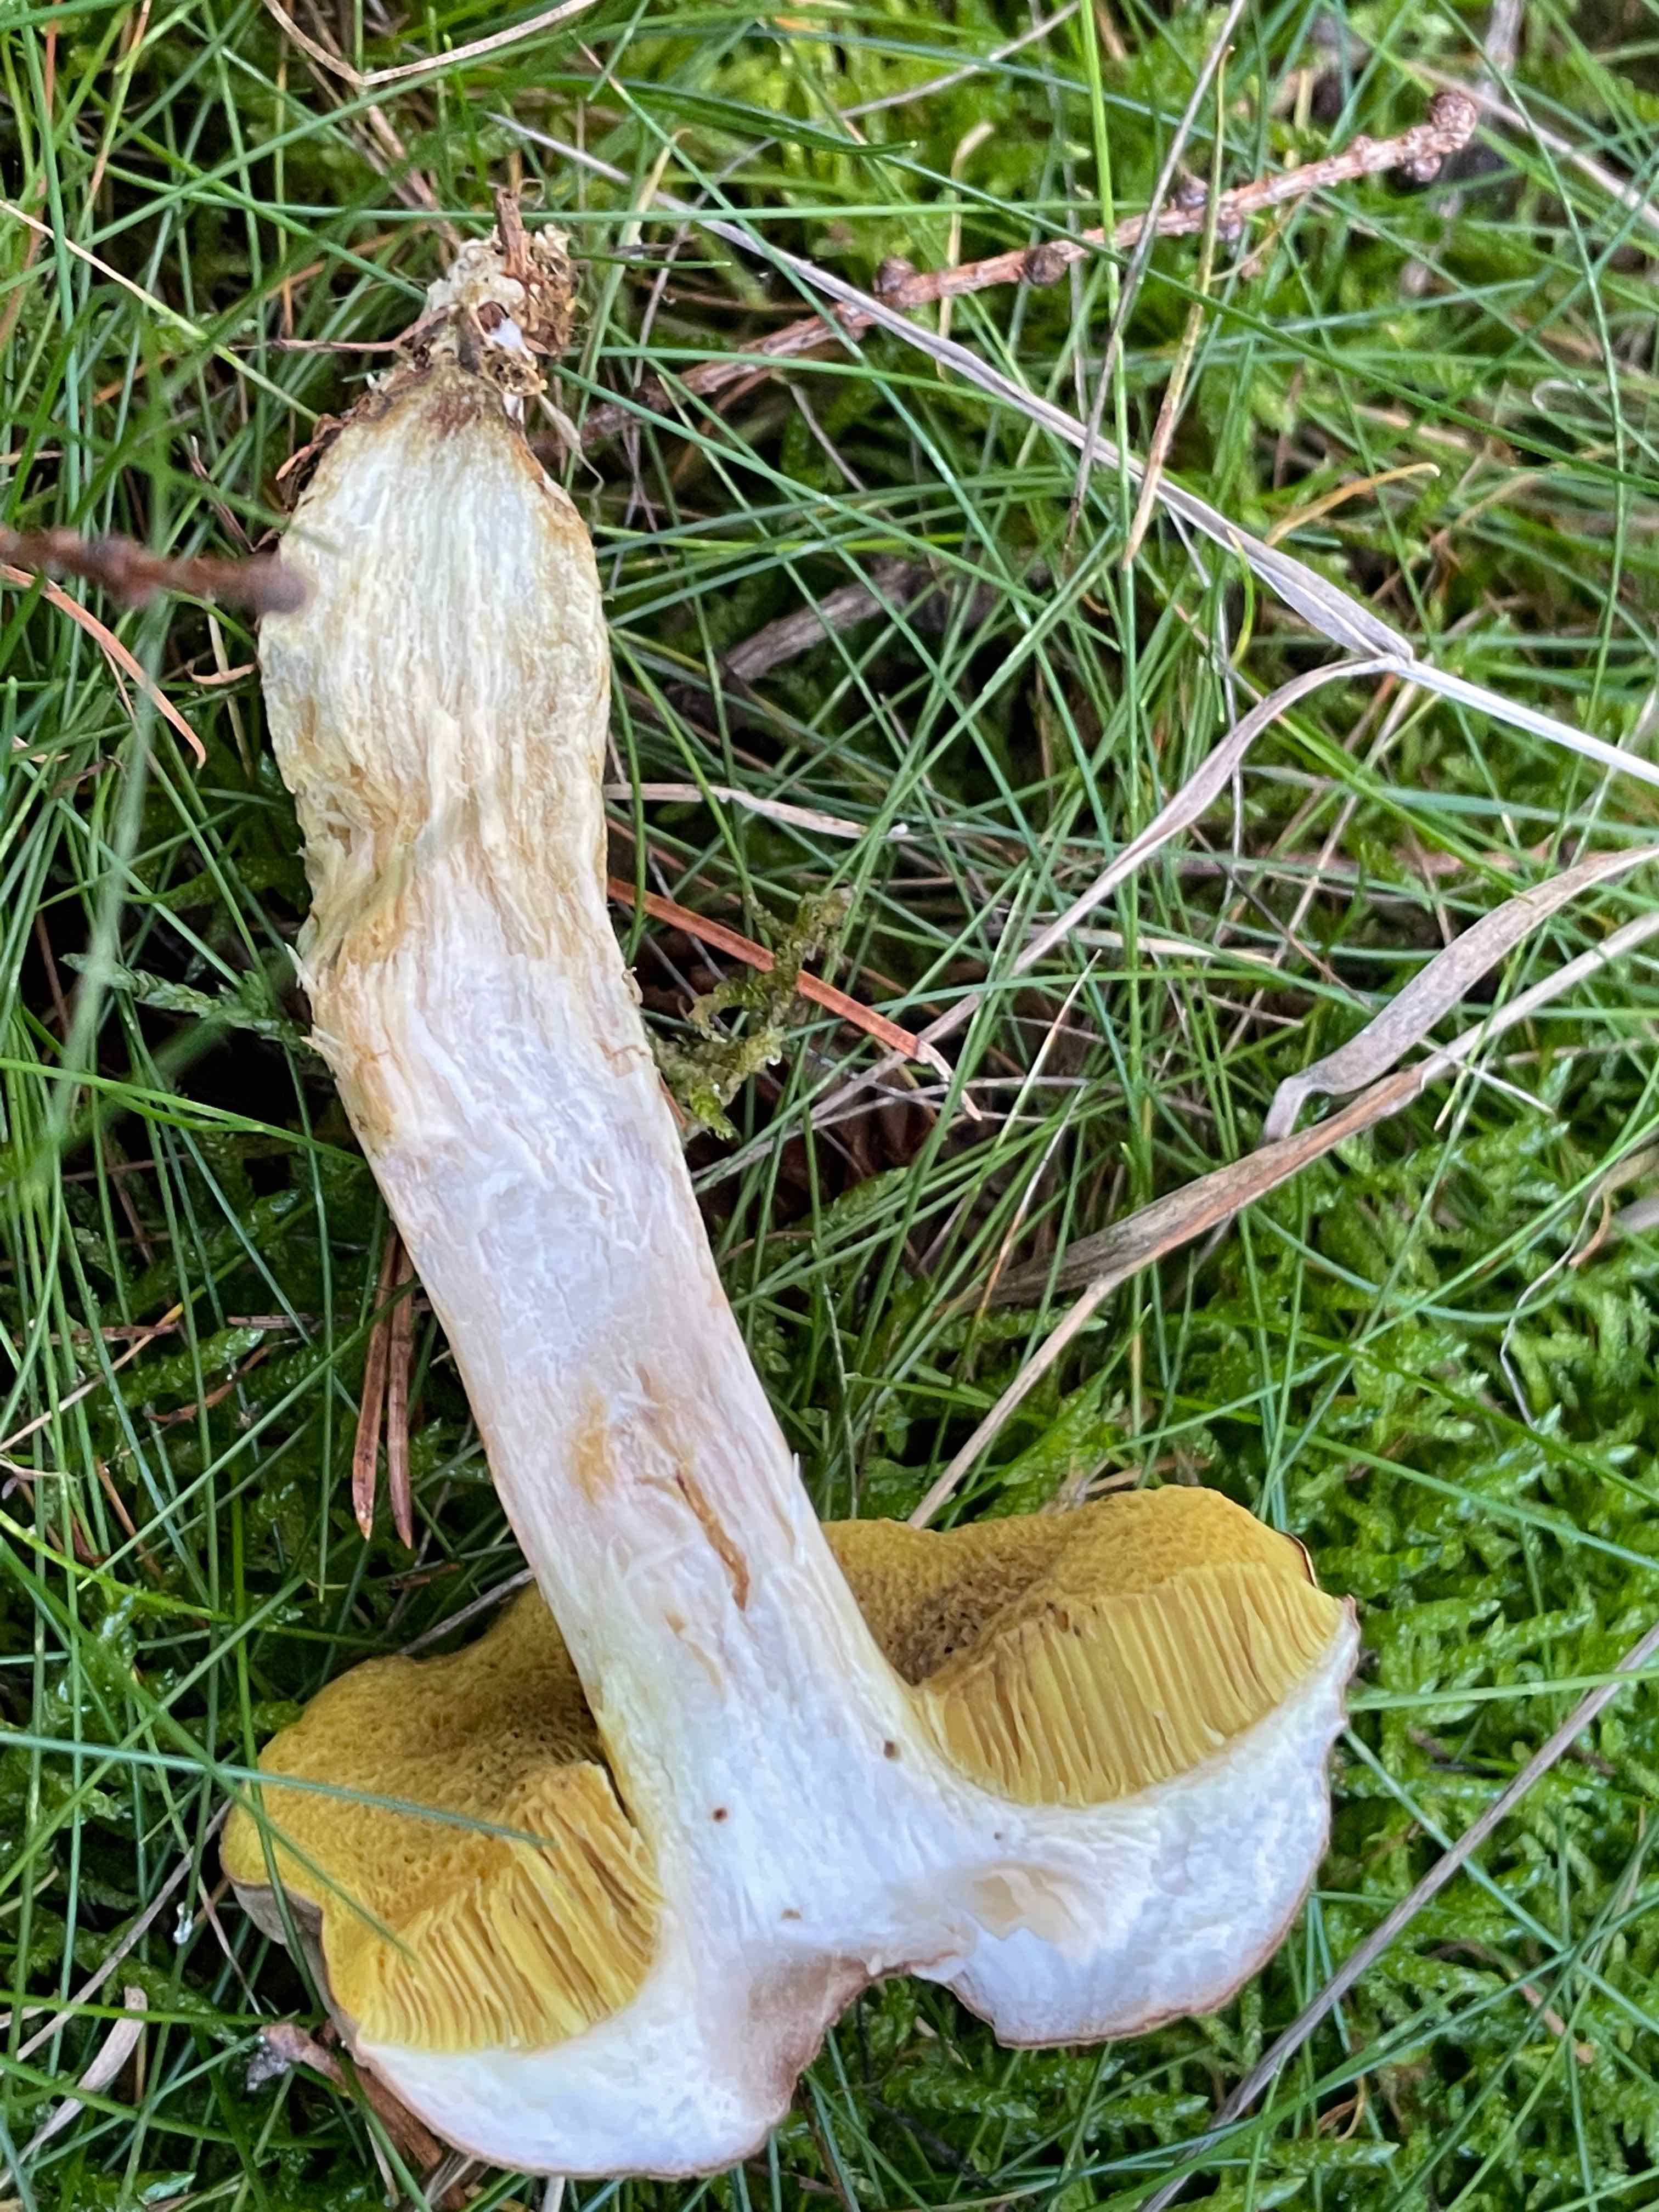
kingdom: Fungi
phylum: Basidiomycota
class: Agaricomycetes
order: Boletales
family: Boletaceae
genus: Xerocomus
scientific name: Xerocomus ferrugineus
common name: vaskeskinds-rørhat
